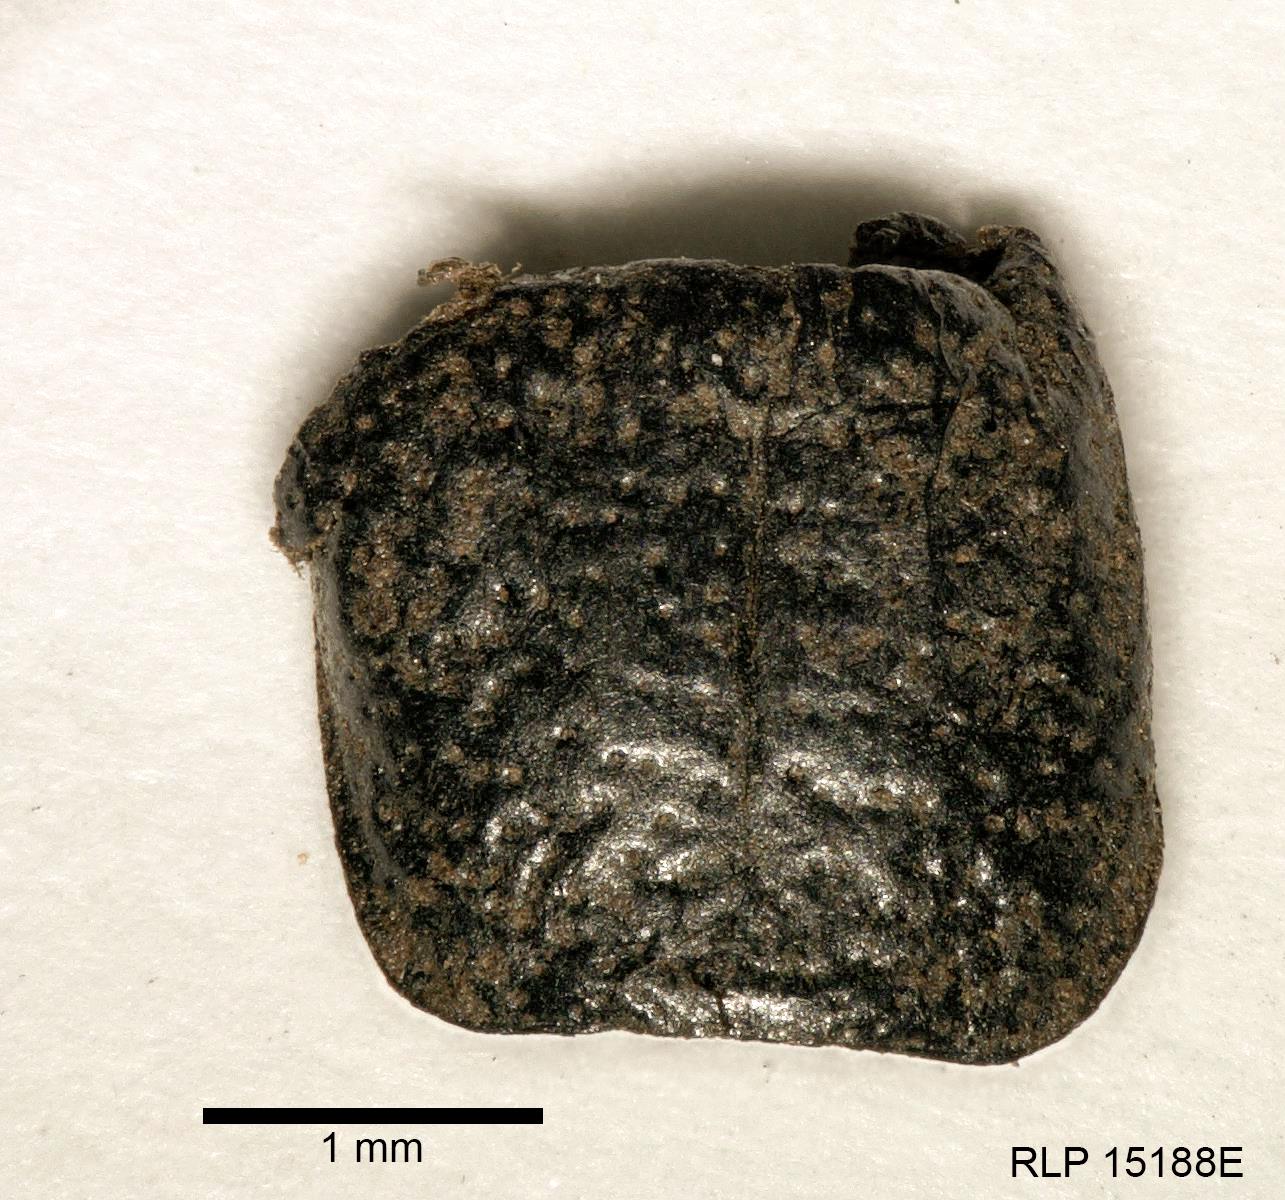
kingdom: Animalia
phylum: Arthropoda
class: Insecta
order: Coleoptera
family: Carabidae
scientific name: Carabidae
